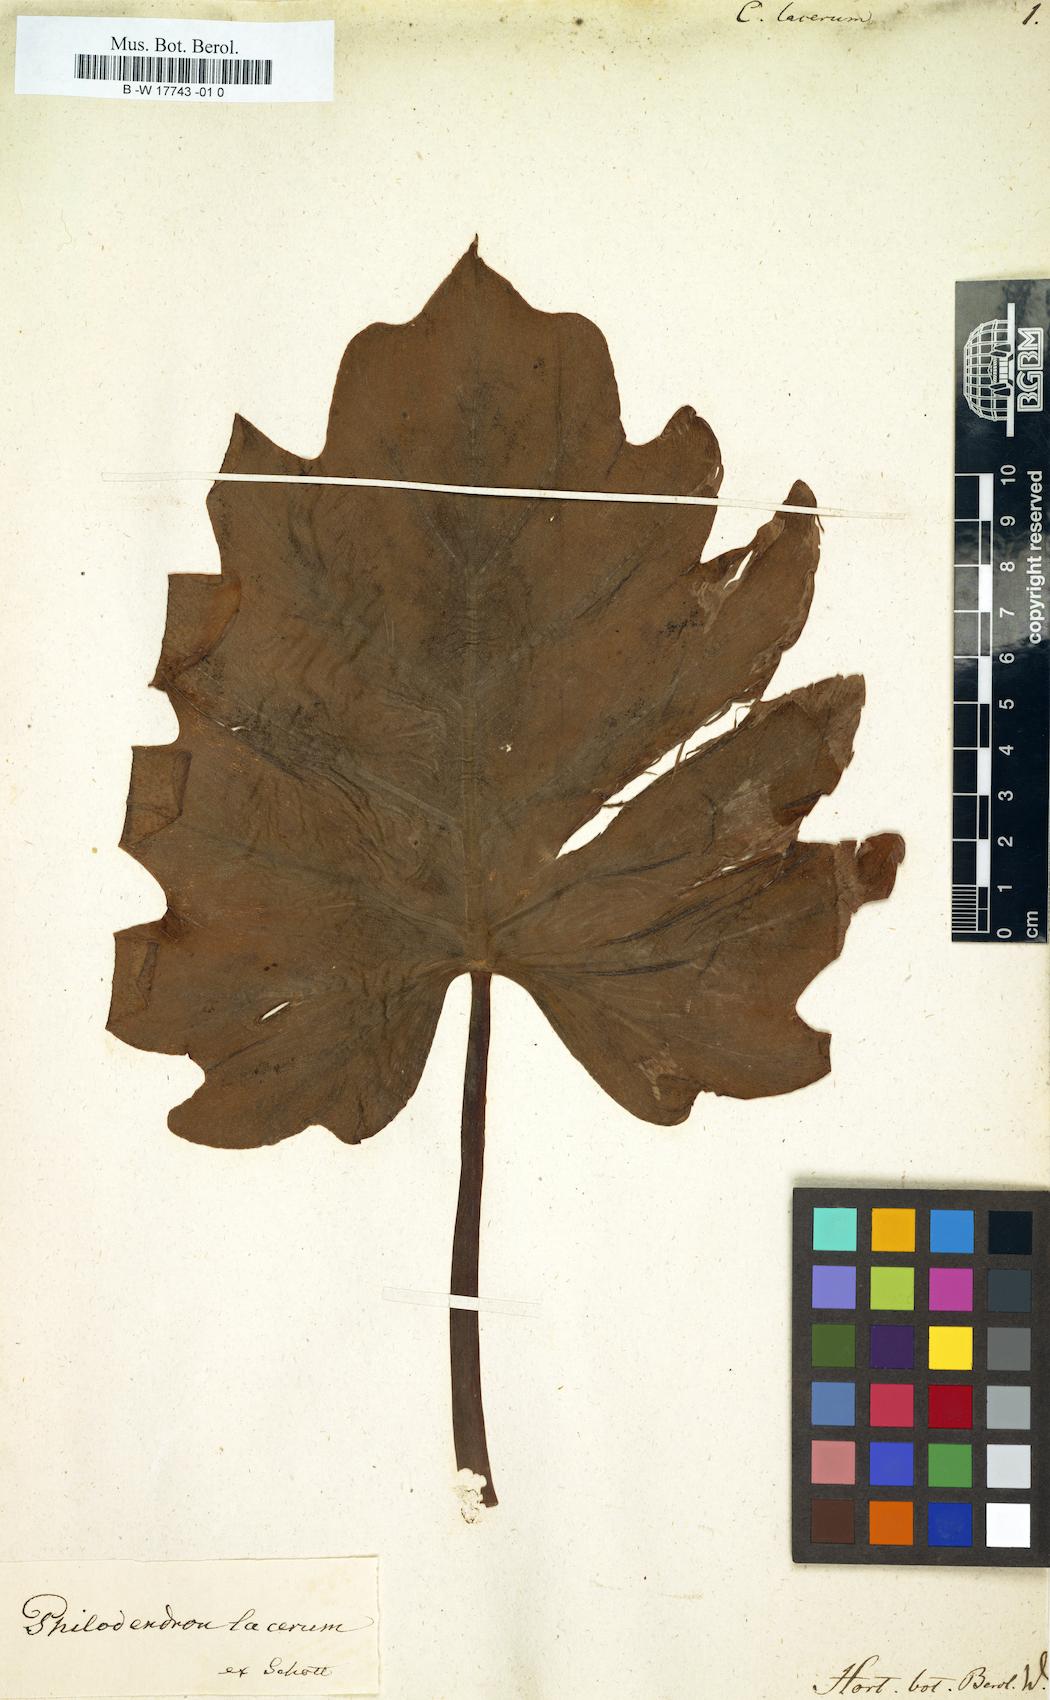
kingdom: Plantae
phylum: Tracheophyta
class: Liliopsida
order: Alismatales
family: Araceae
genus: Philodendron
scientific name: Philodendron lacerum
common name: Philodendron
